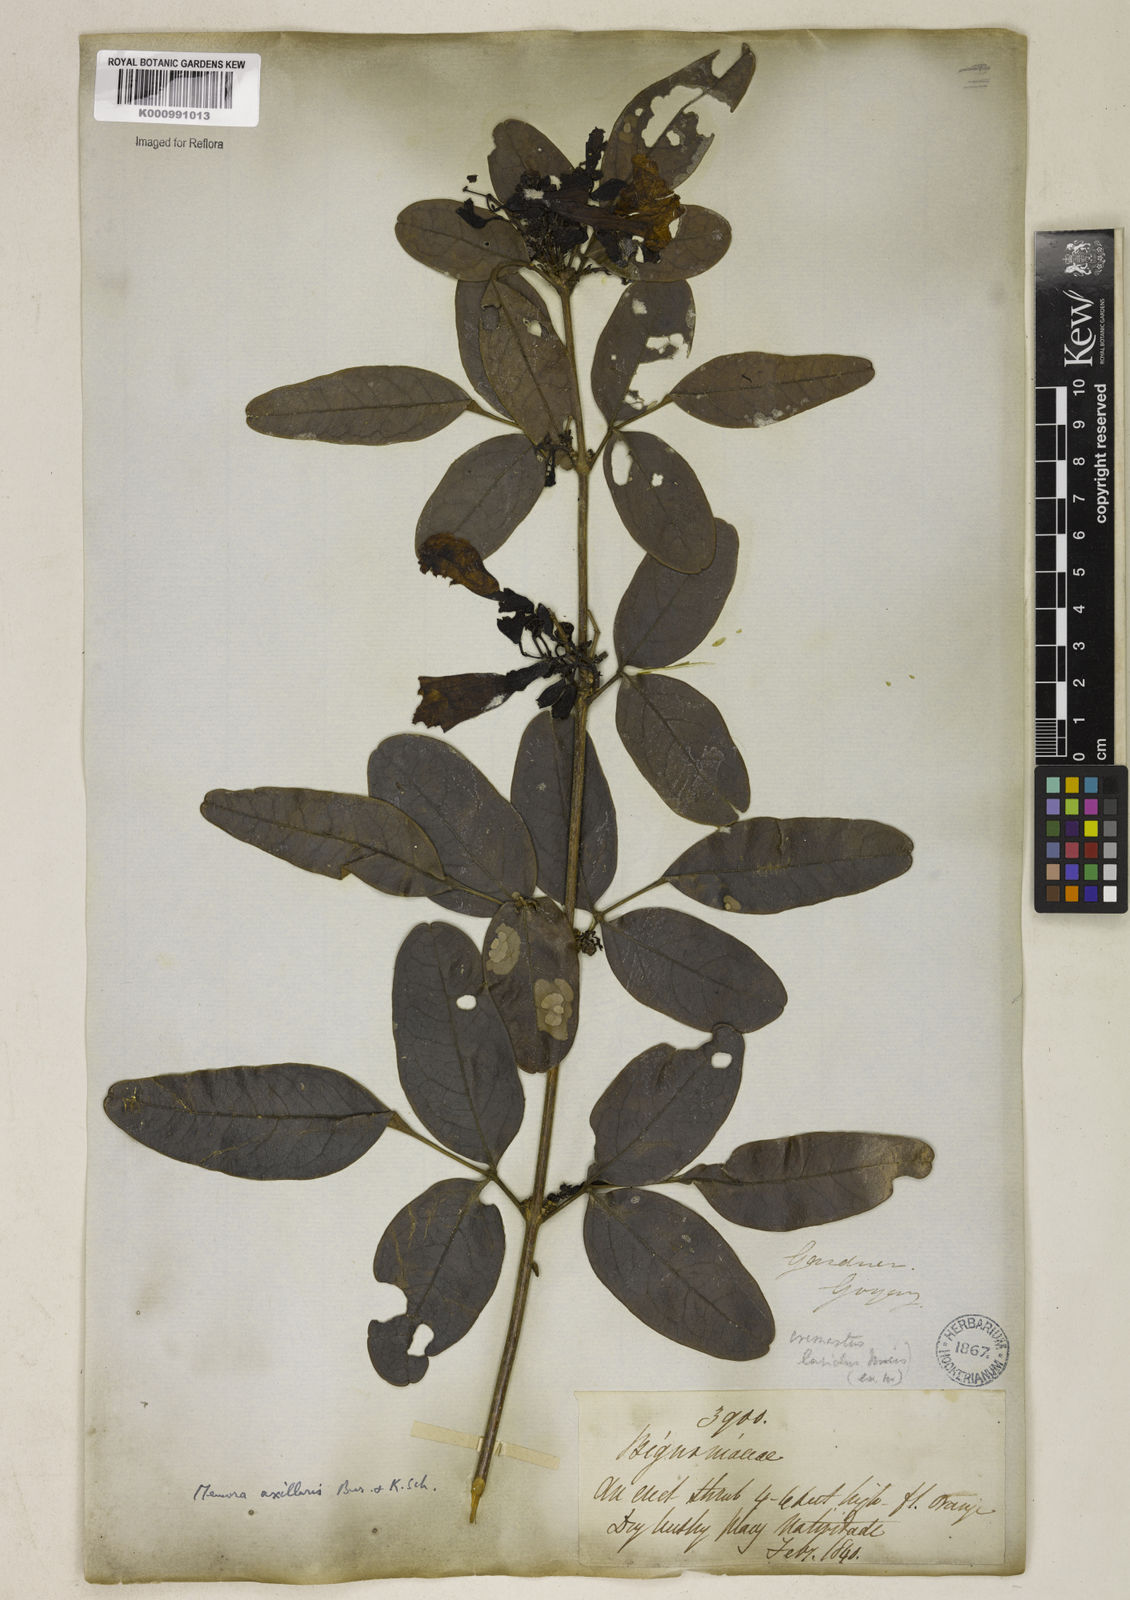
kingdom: Plantae
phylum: Tracheophyta
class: Magnoliopsida
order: Lamiales
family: Bignoniaceae
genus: Adenocalymma
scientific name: Adenocalymma axillare
